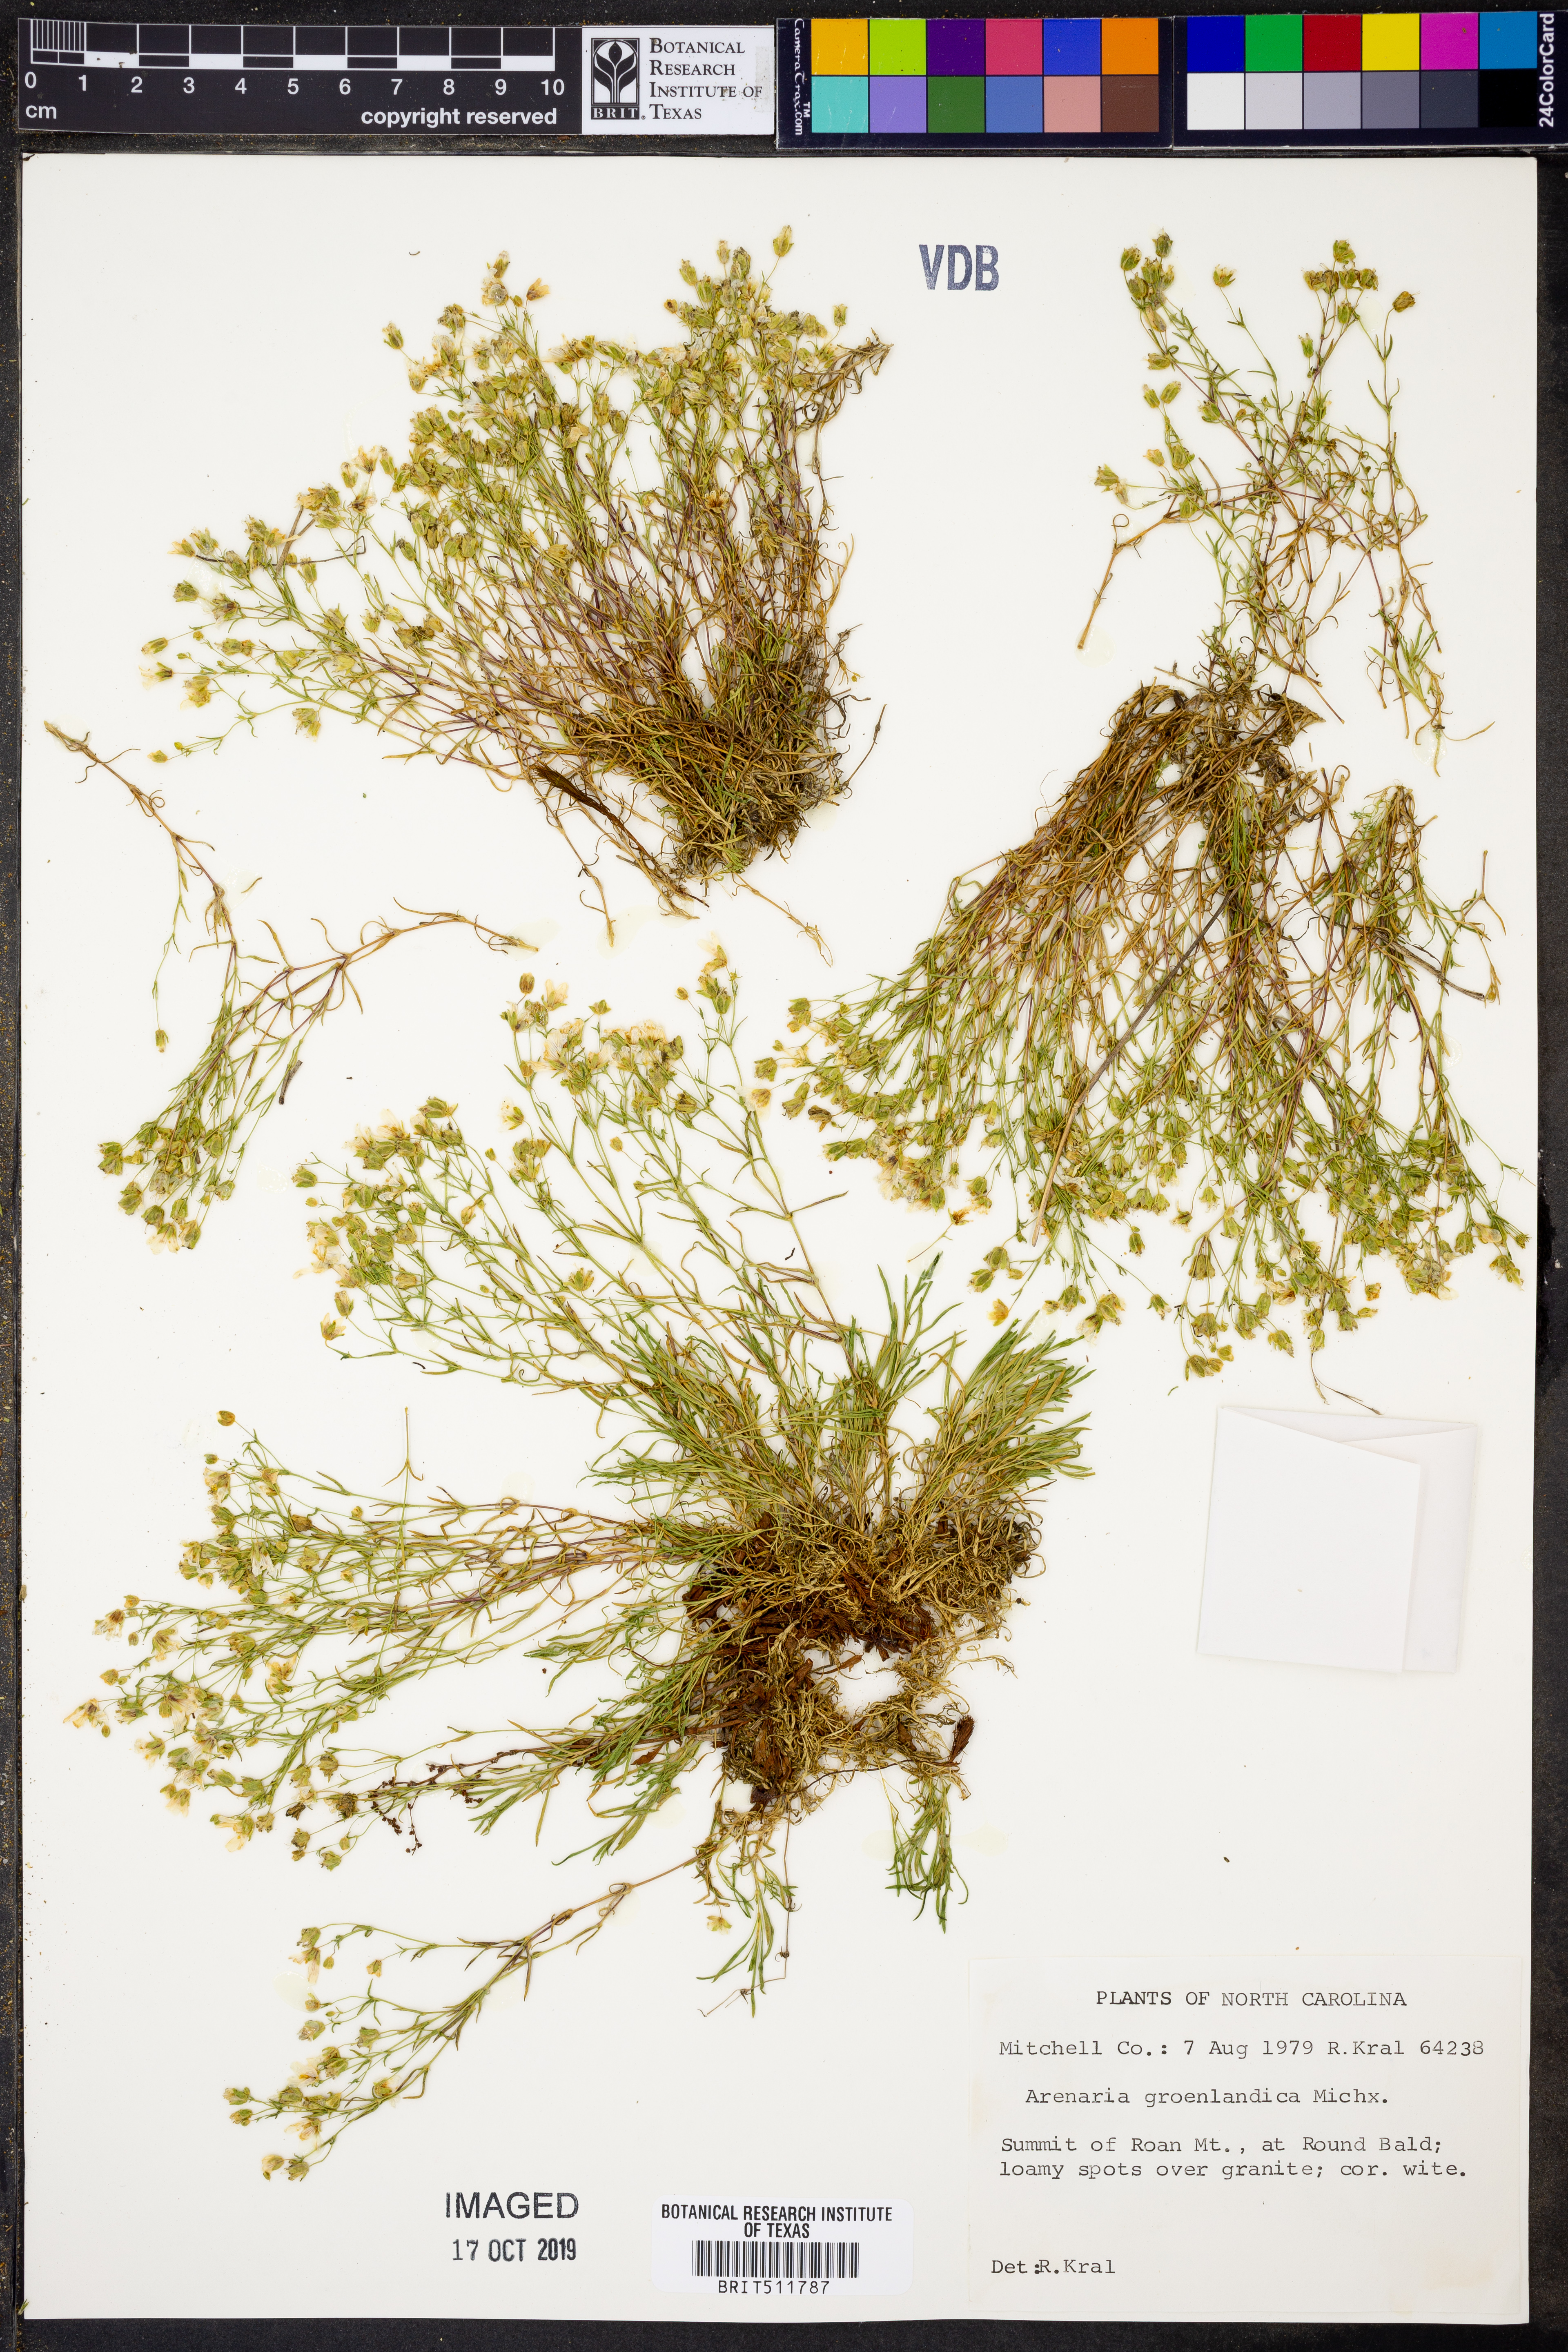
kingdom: Plantae
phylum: Tracheophyta
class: Magnoliopsida
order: Caryophyllales
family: Caryophyllaceae
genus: Geocarpon
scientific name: Geocarpon groenlandicum
